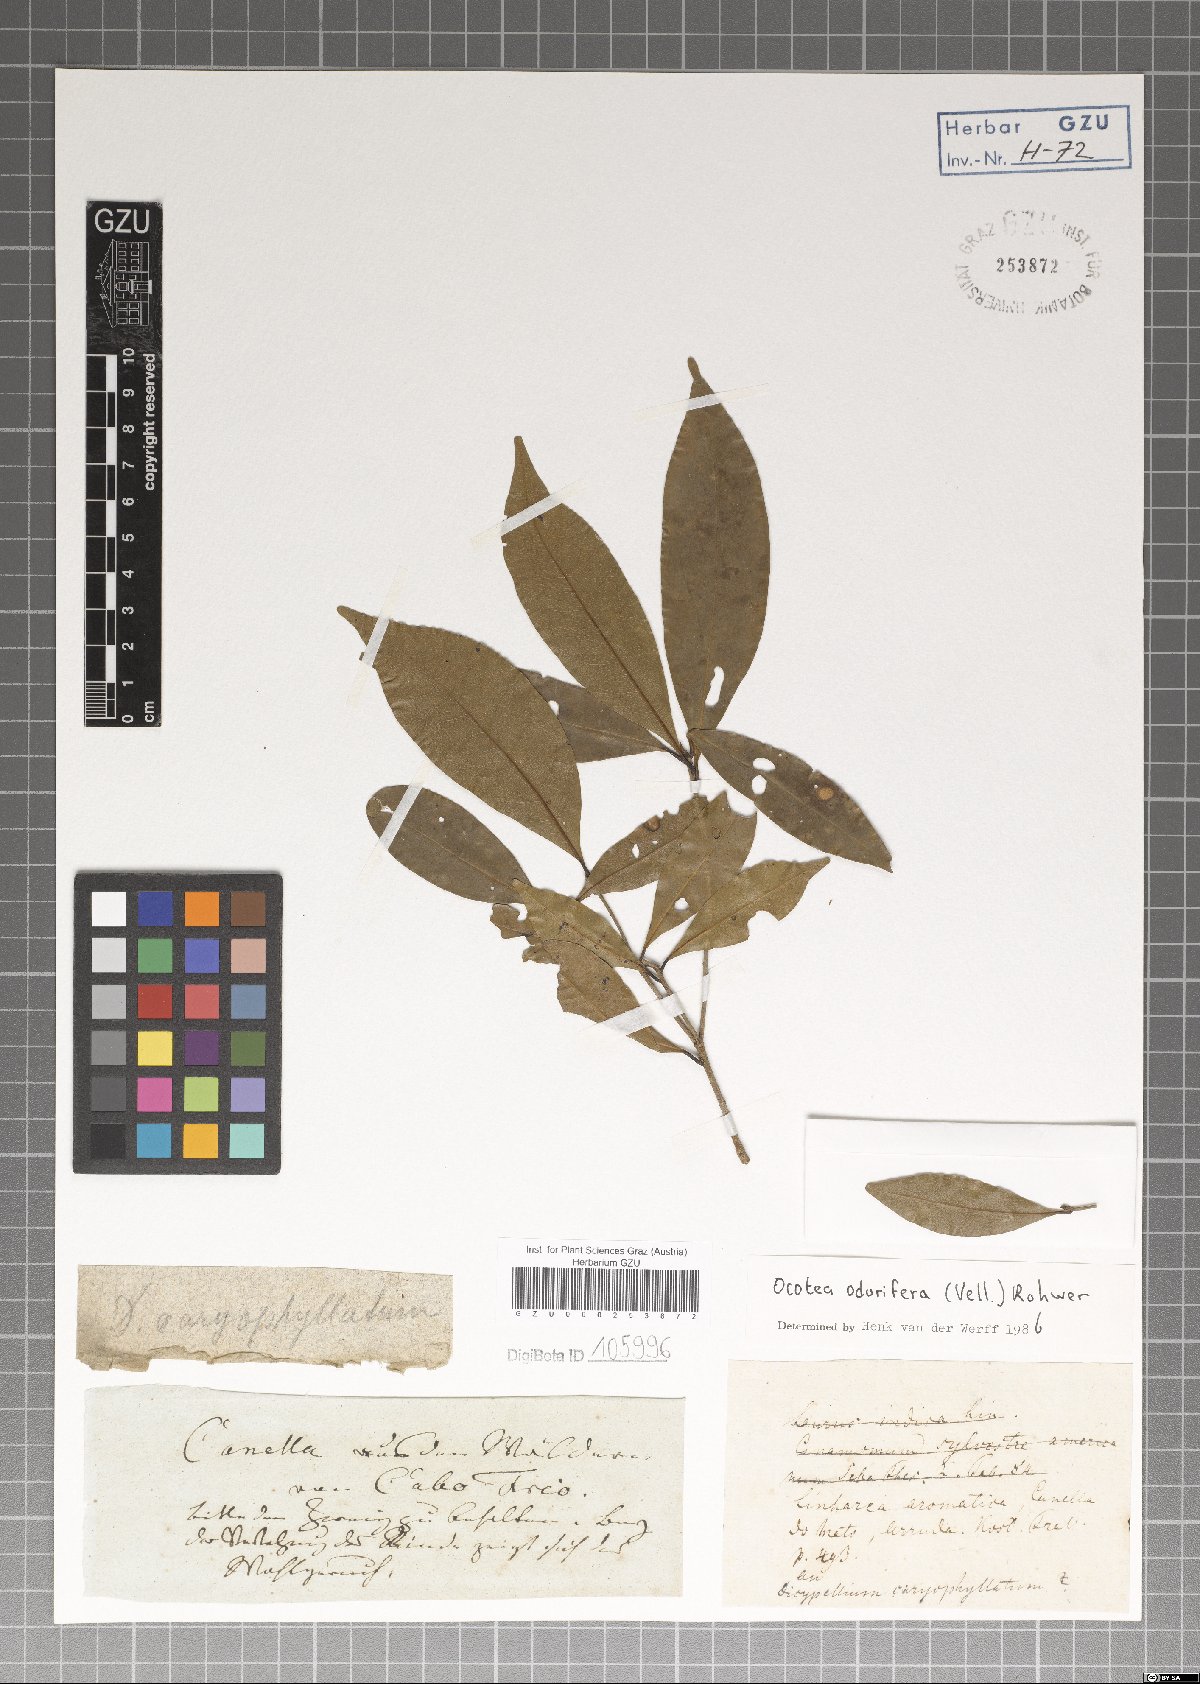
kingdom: Plantae
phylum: Tracheophyta
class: Magnoliopsida
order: Laurales
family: Lauraceae
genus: Mespilodaphne
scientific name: Mespilodaphne quixos
